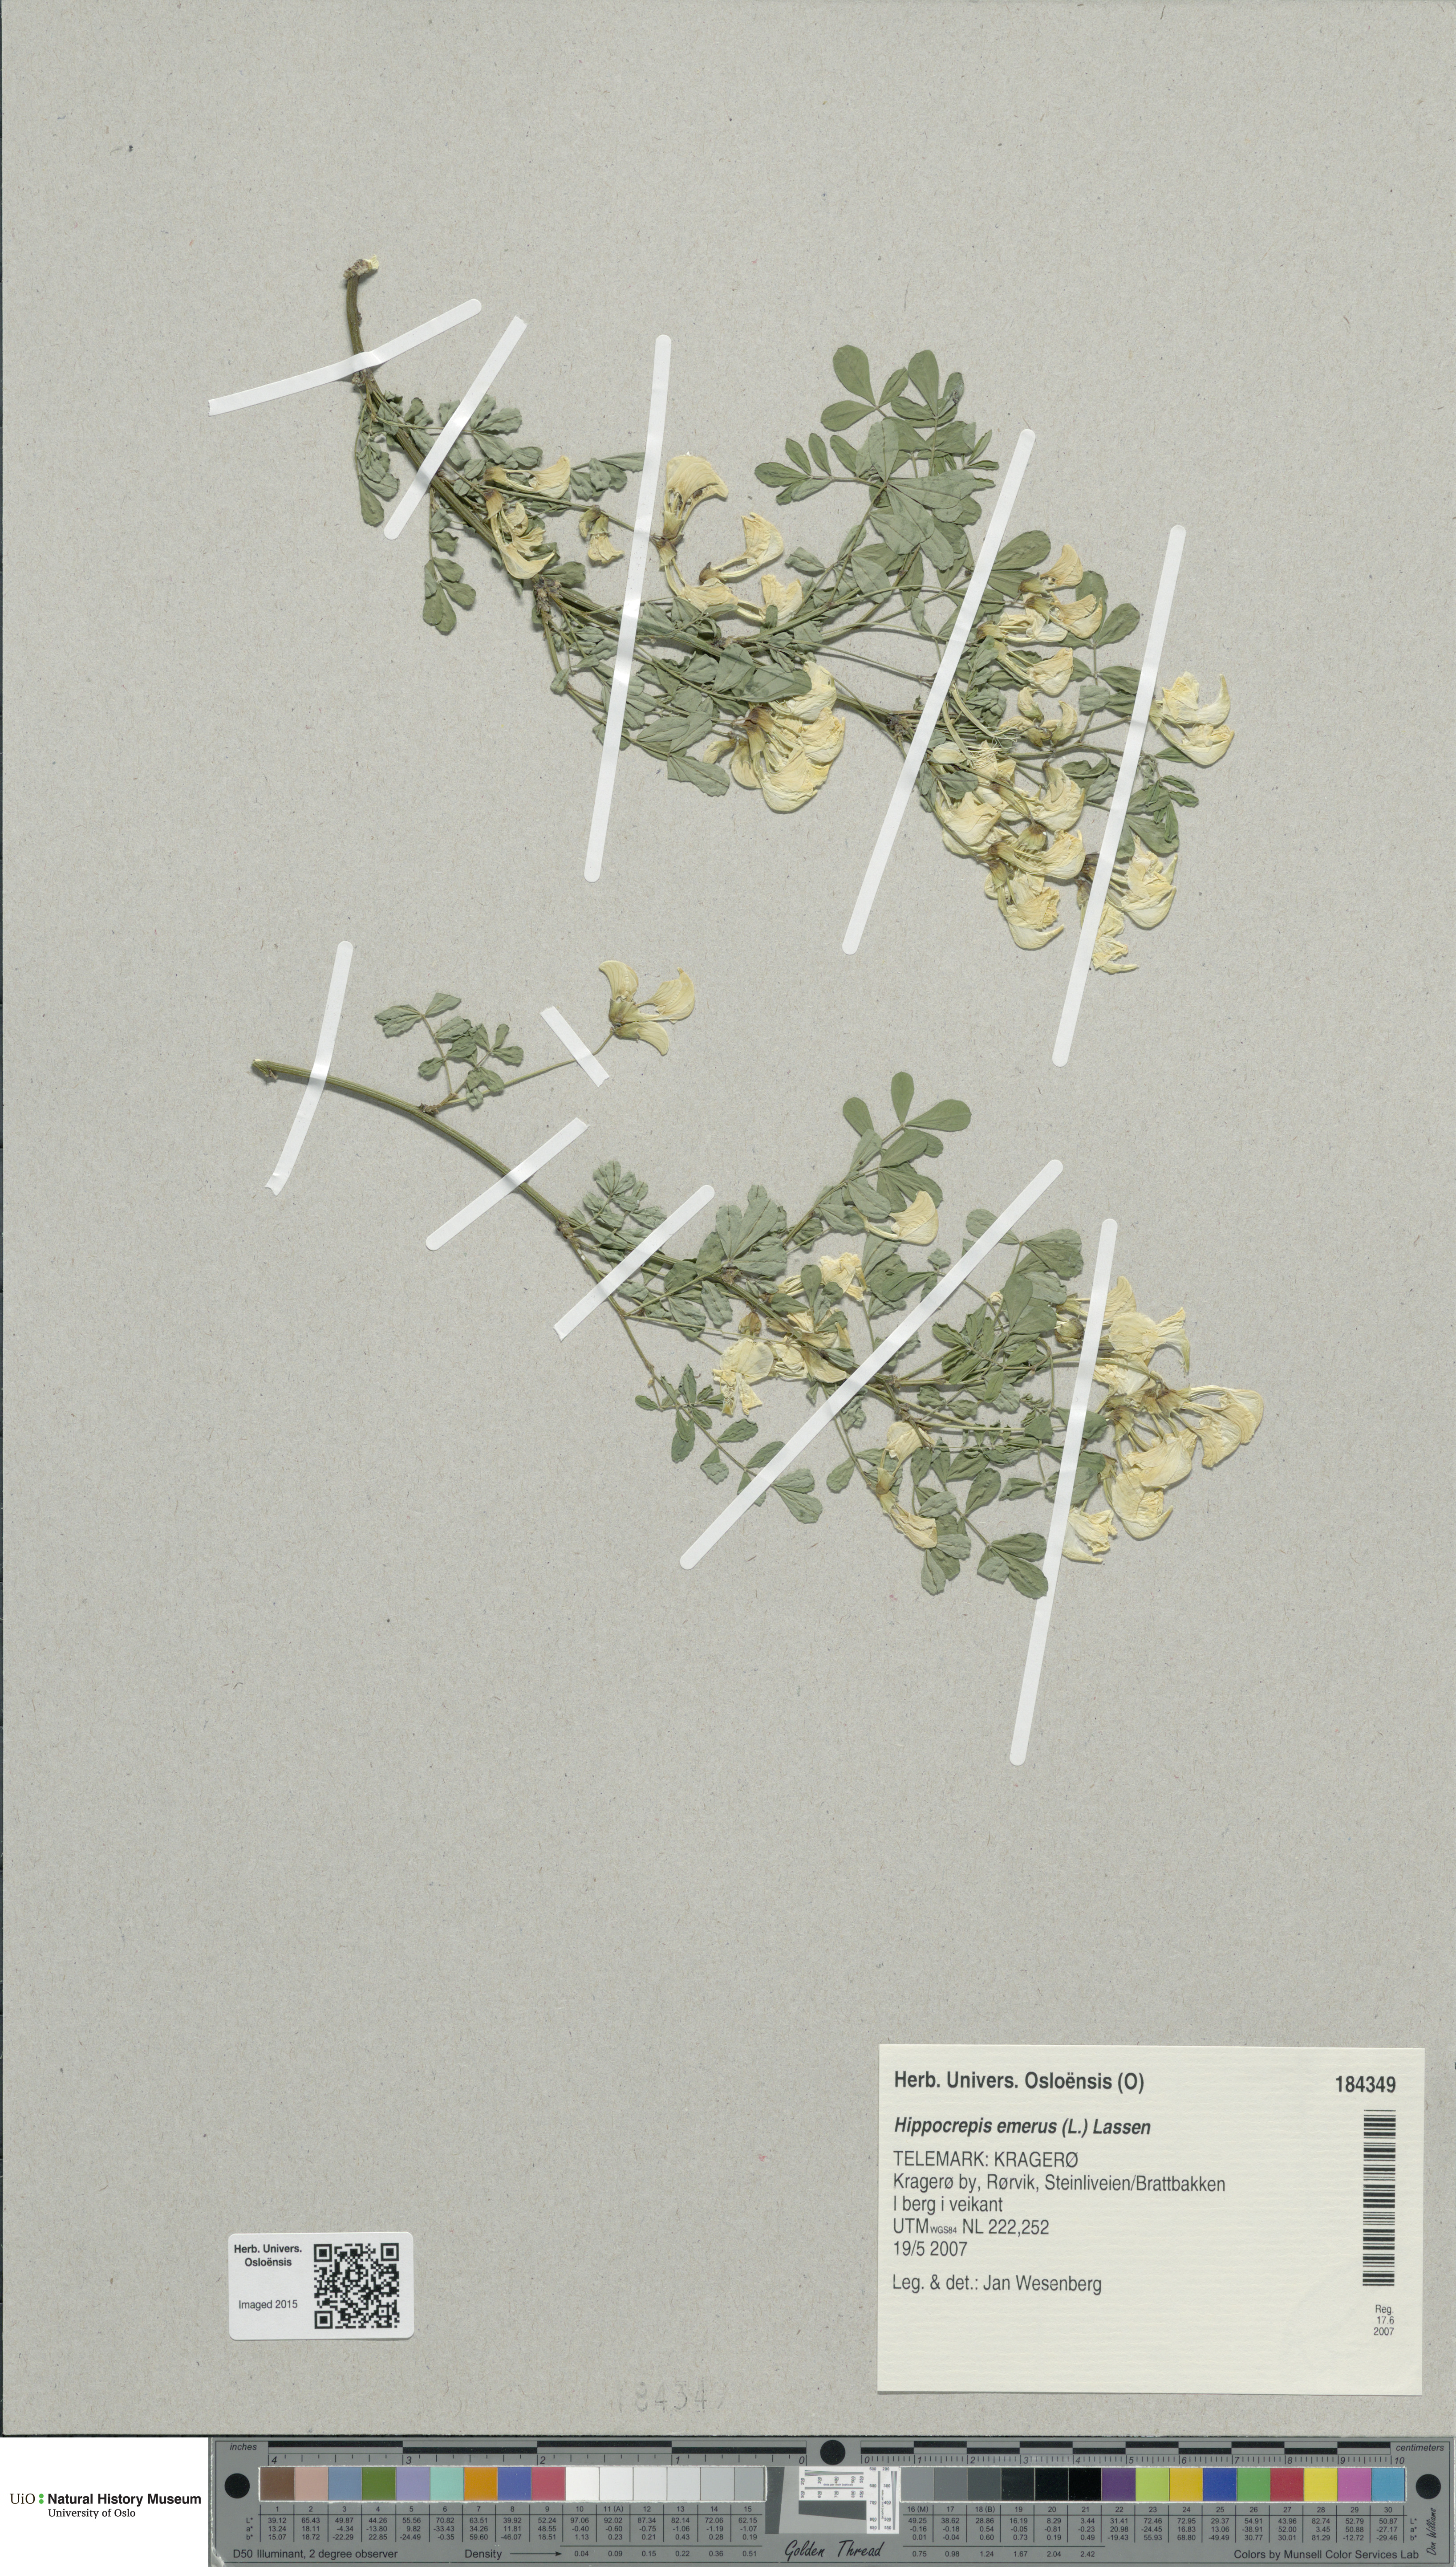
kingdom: Plantae
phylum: Tracheophyta
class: Magnoliopsida
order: Fabales
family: Fabaceae
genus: Hippocrepis
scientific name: Hippocrepis emerus
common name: Scorpion senna
